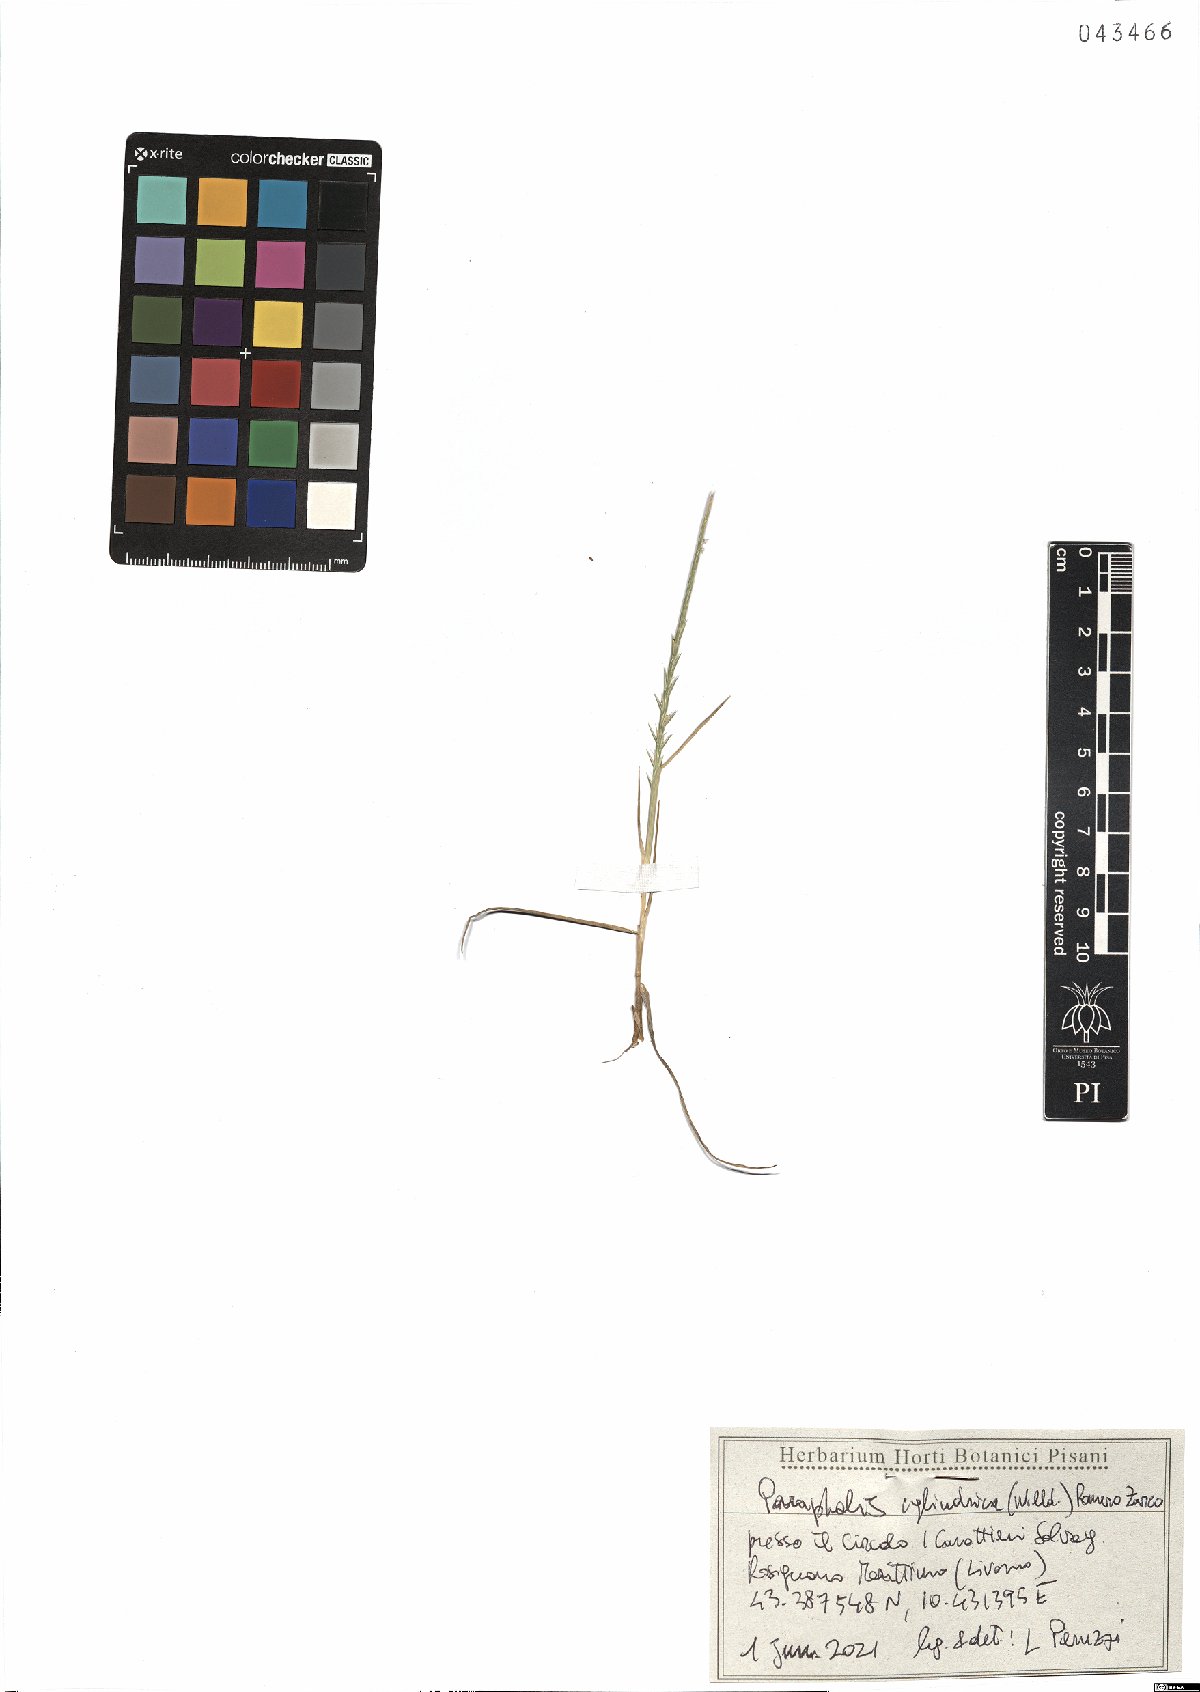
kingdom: Plantae
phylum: Tracheophyta
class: Liliopsida
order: Poales
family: Poaceae
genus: Parapholis
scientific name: Parapholis cylindrica
